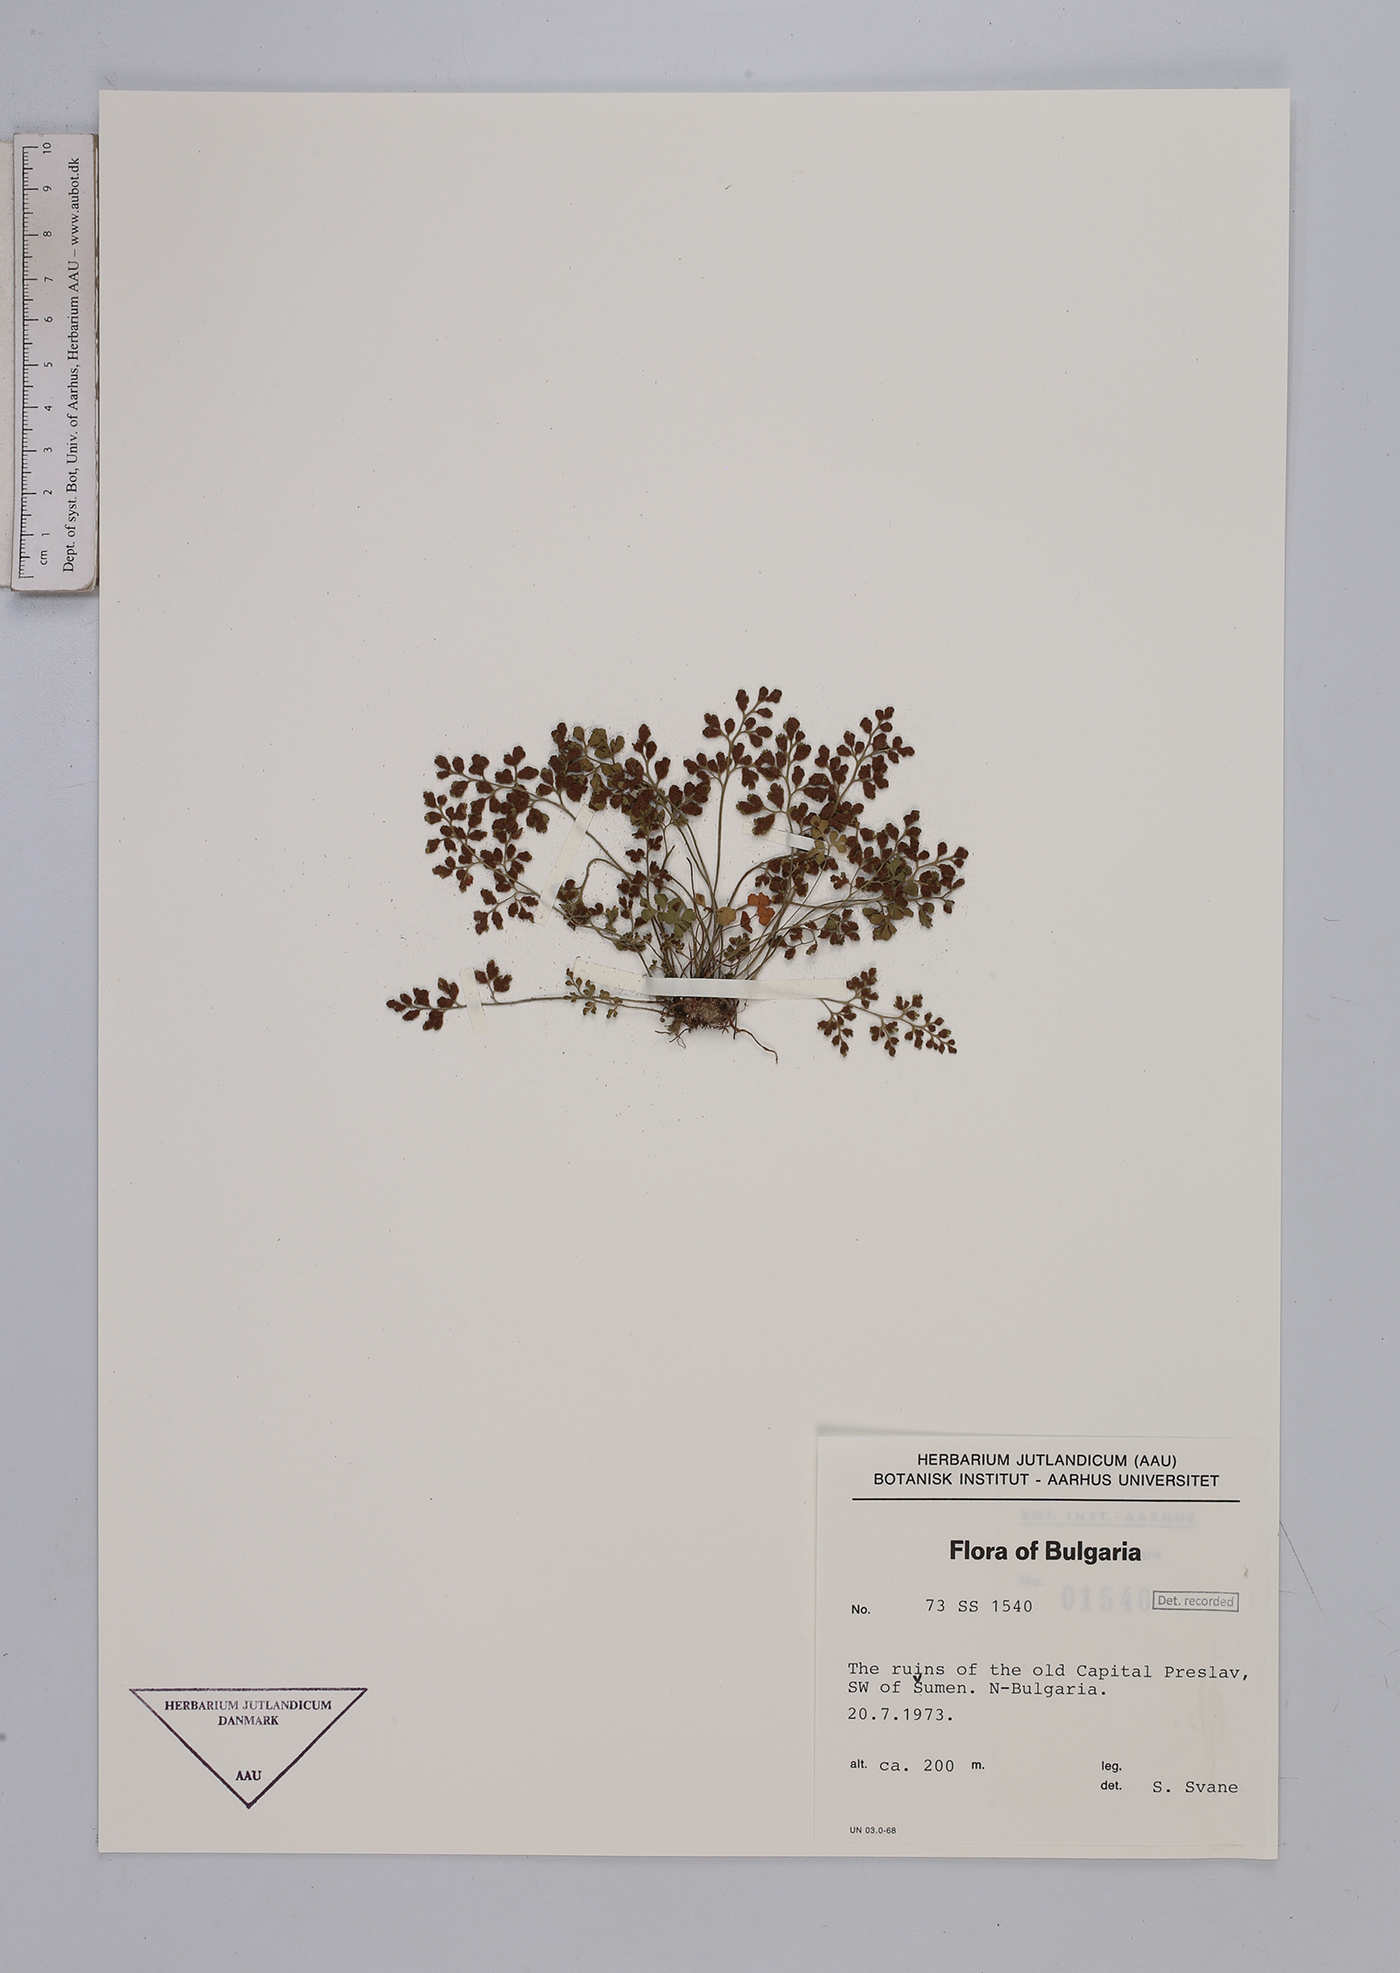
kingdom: Plantae
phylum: Tracheophyta
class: Polypodiopsida
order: Polypodiales
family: Aspleniaceae
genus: Asplenium
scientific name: Asplenium ruta-muraria
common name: Wall-rue
